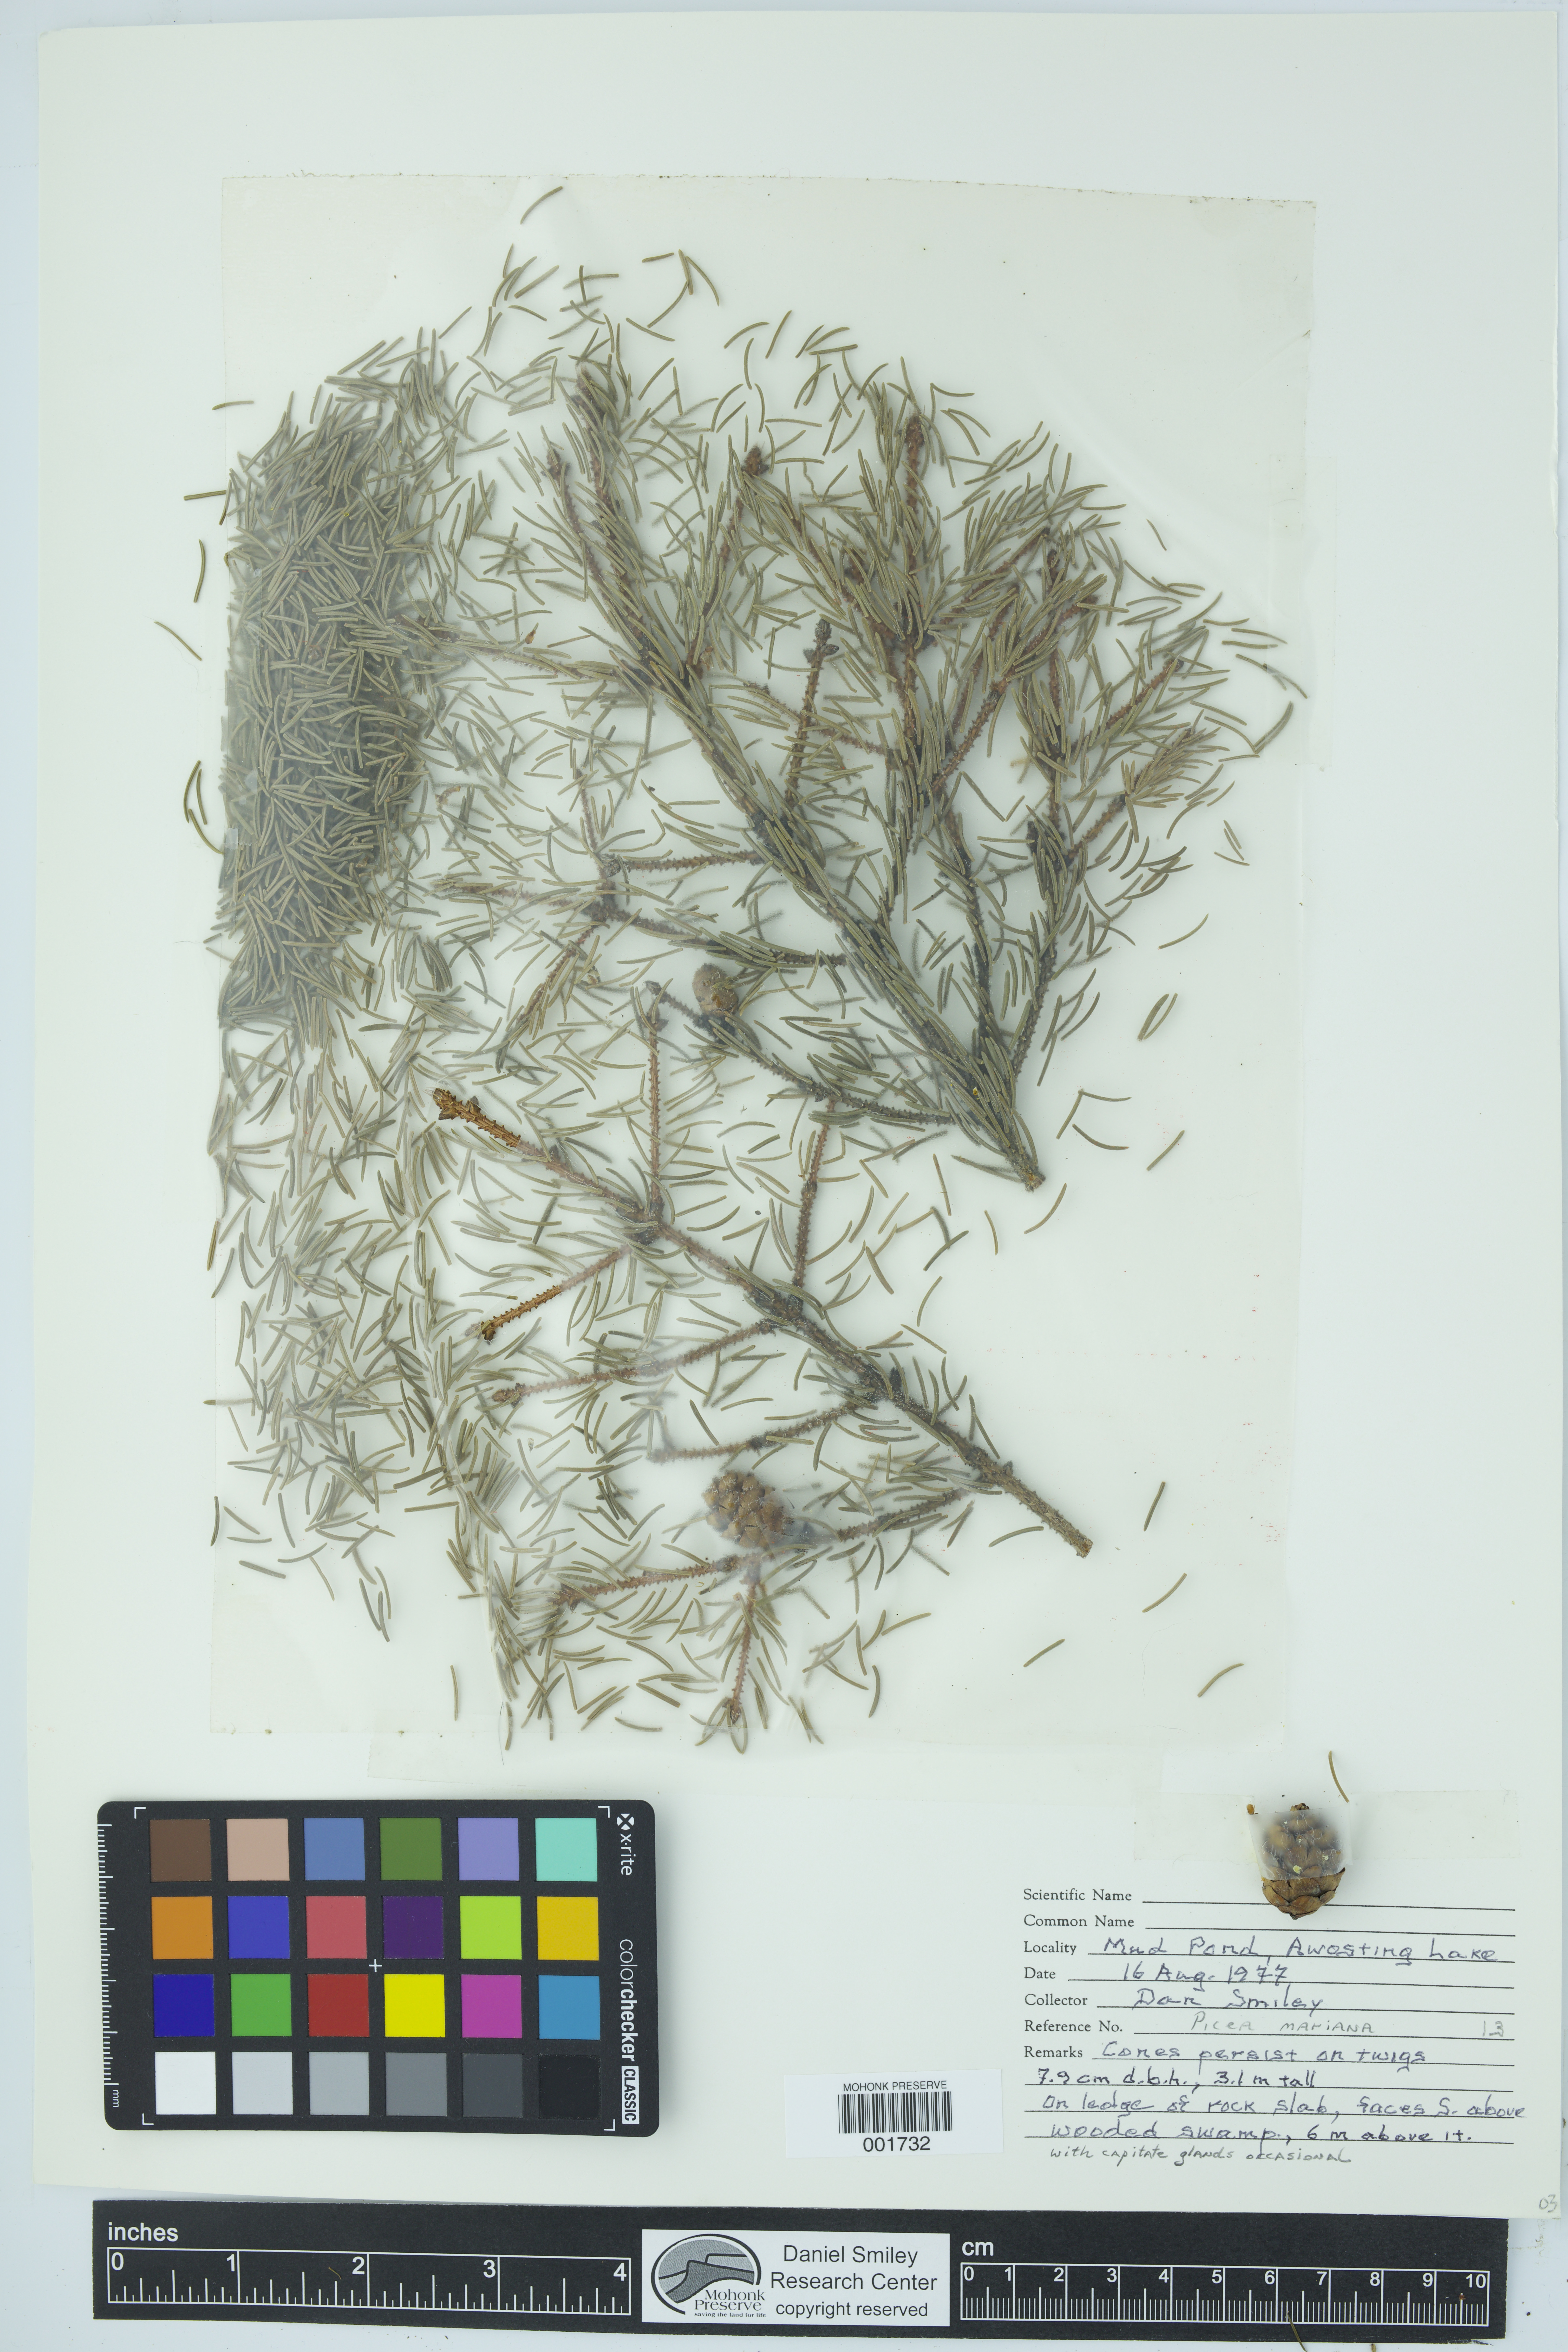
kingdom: Plantae
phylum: Tracheophyta
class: Pinopsida
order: Pinales
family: Pinaceae
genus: Picea
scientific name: Picea mariana
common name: Black spruce
